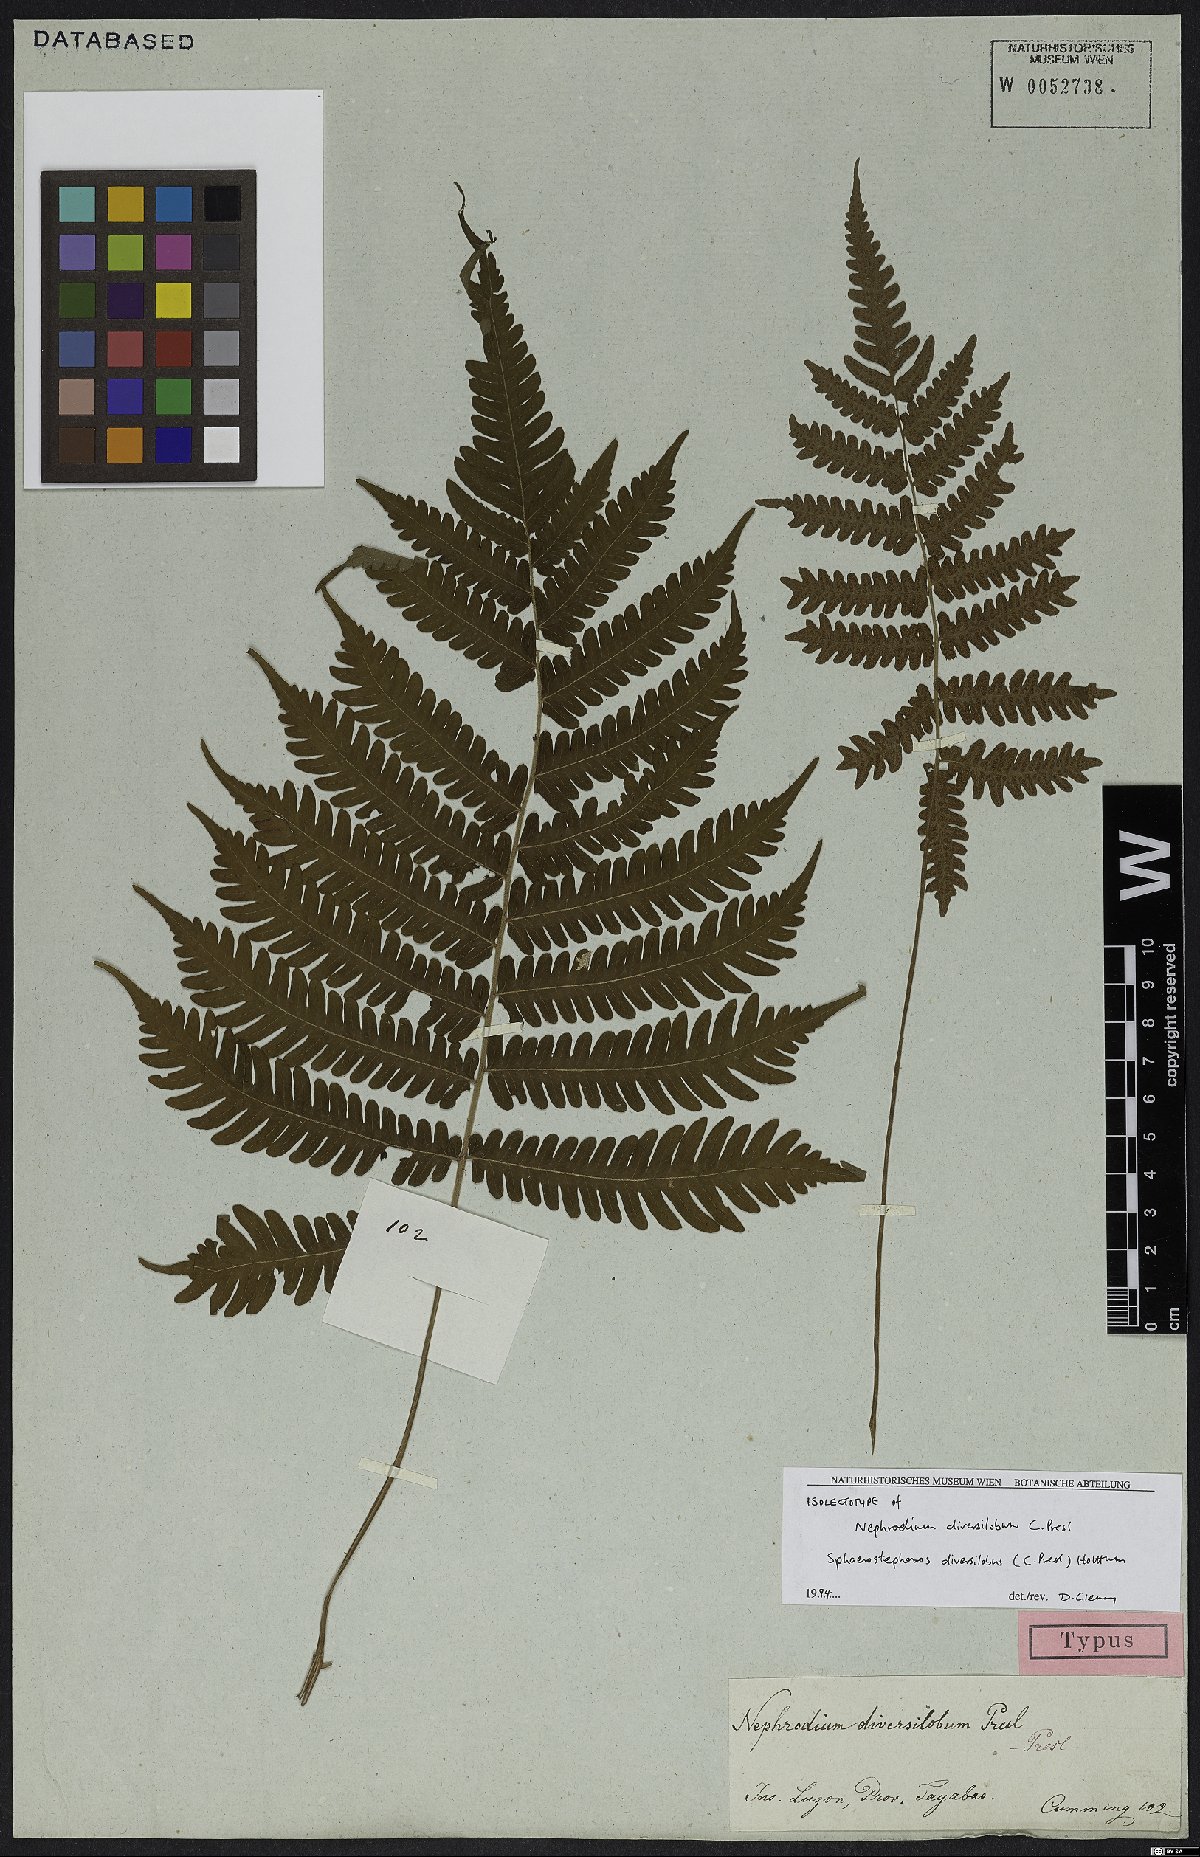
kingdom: Plantae
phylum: Tracheophyta
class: Polypodiopsida
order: Polypodiales
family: Thelypteridaceae
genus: Sphaerostephanos
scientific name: Sphaerostephanos diversilobus
